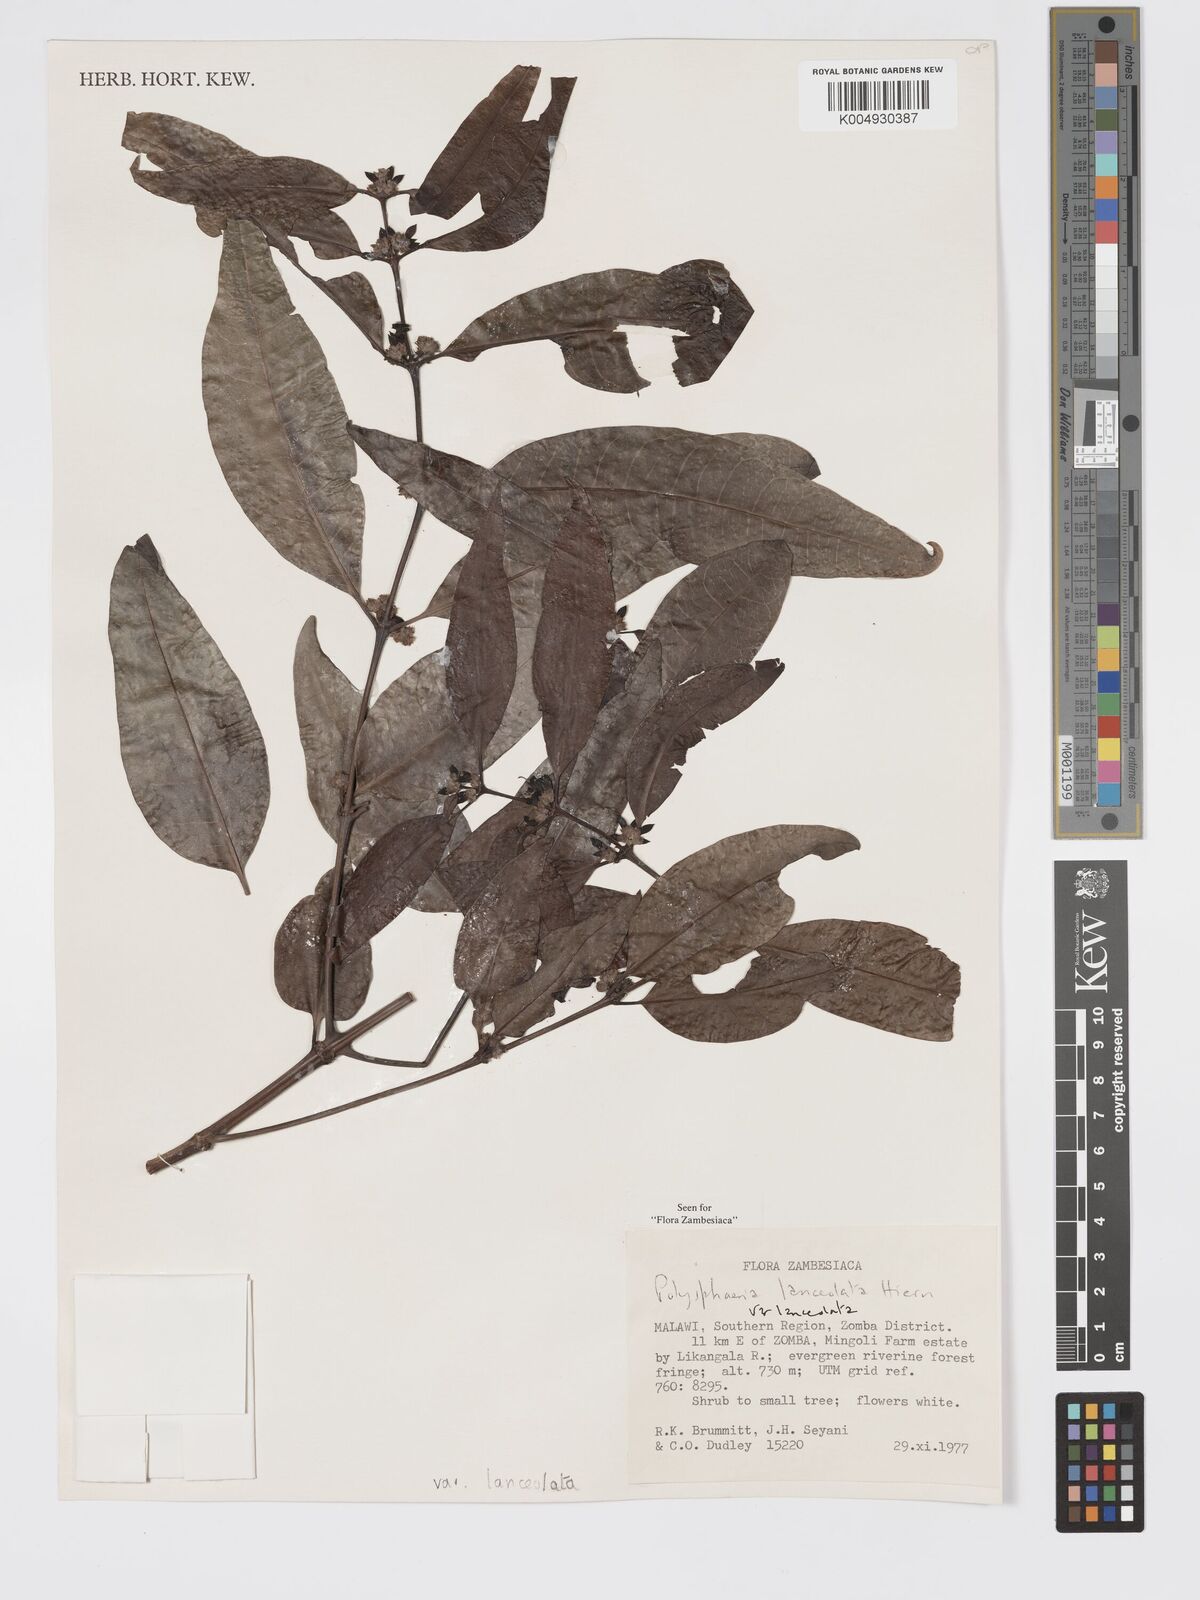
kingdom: Plantae
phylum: Tracheophyta
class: Magnoliopsida
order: Gentianales
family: Rubiaceae
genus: Polysphaeria
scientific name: Polysphaeria lanceolata
